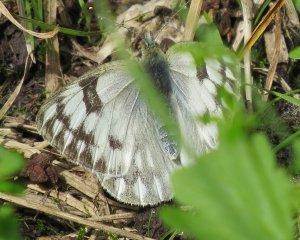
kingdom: Animalia
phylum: Arthropoda
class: Insecta
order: Lepidoptera
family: Pieridae
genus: Pontia
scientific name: Pontia protodice
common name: Checkered White
